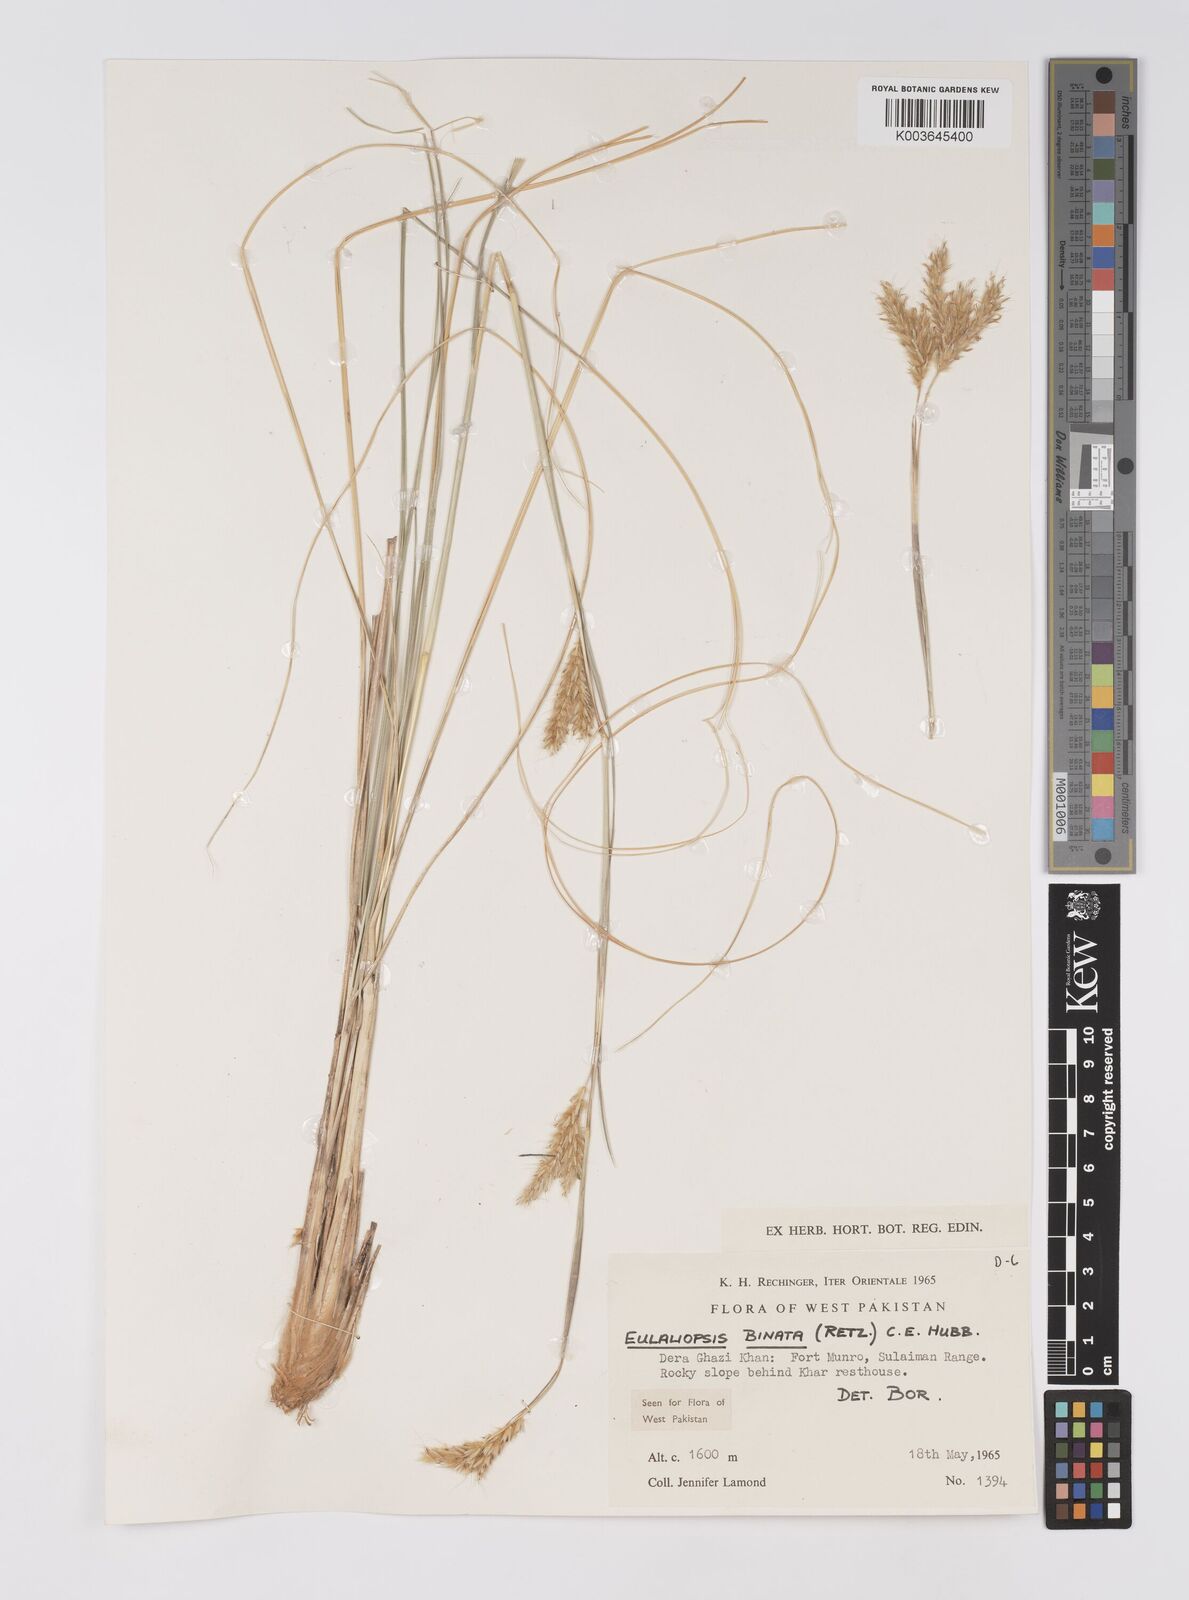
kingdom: Plantae
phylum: Tracheophyta
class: Liliopsida
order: Poales
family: Poaceae
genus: Eulaliopsis
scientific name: Eulaliopsis binata
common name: Baib grass
